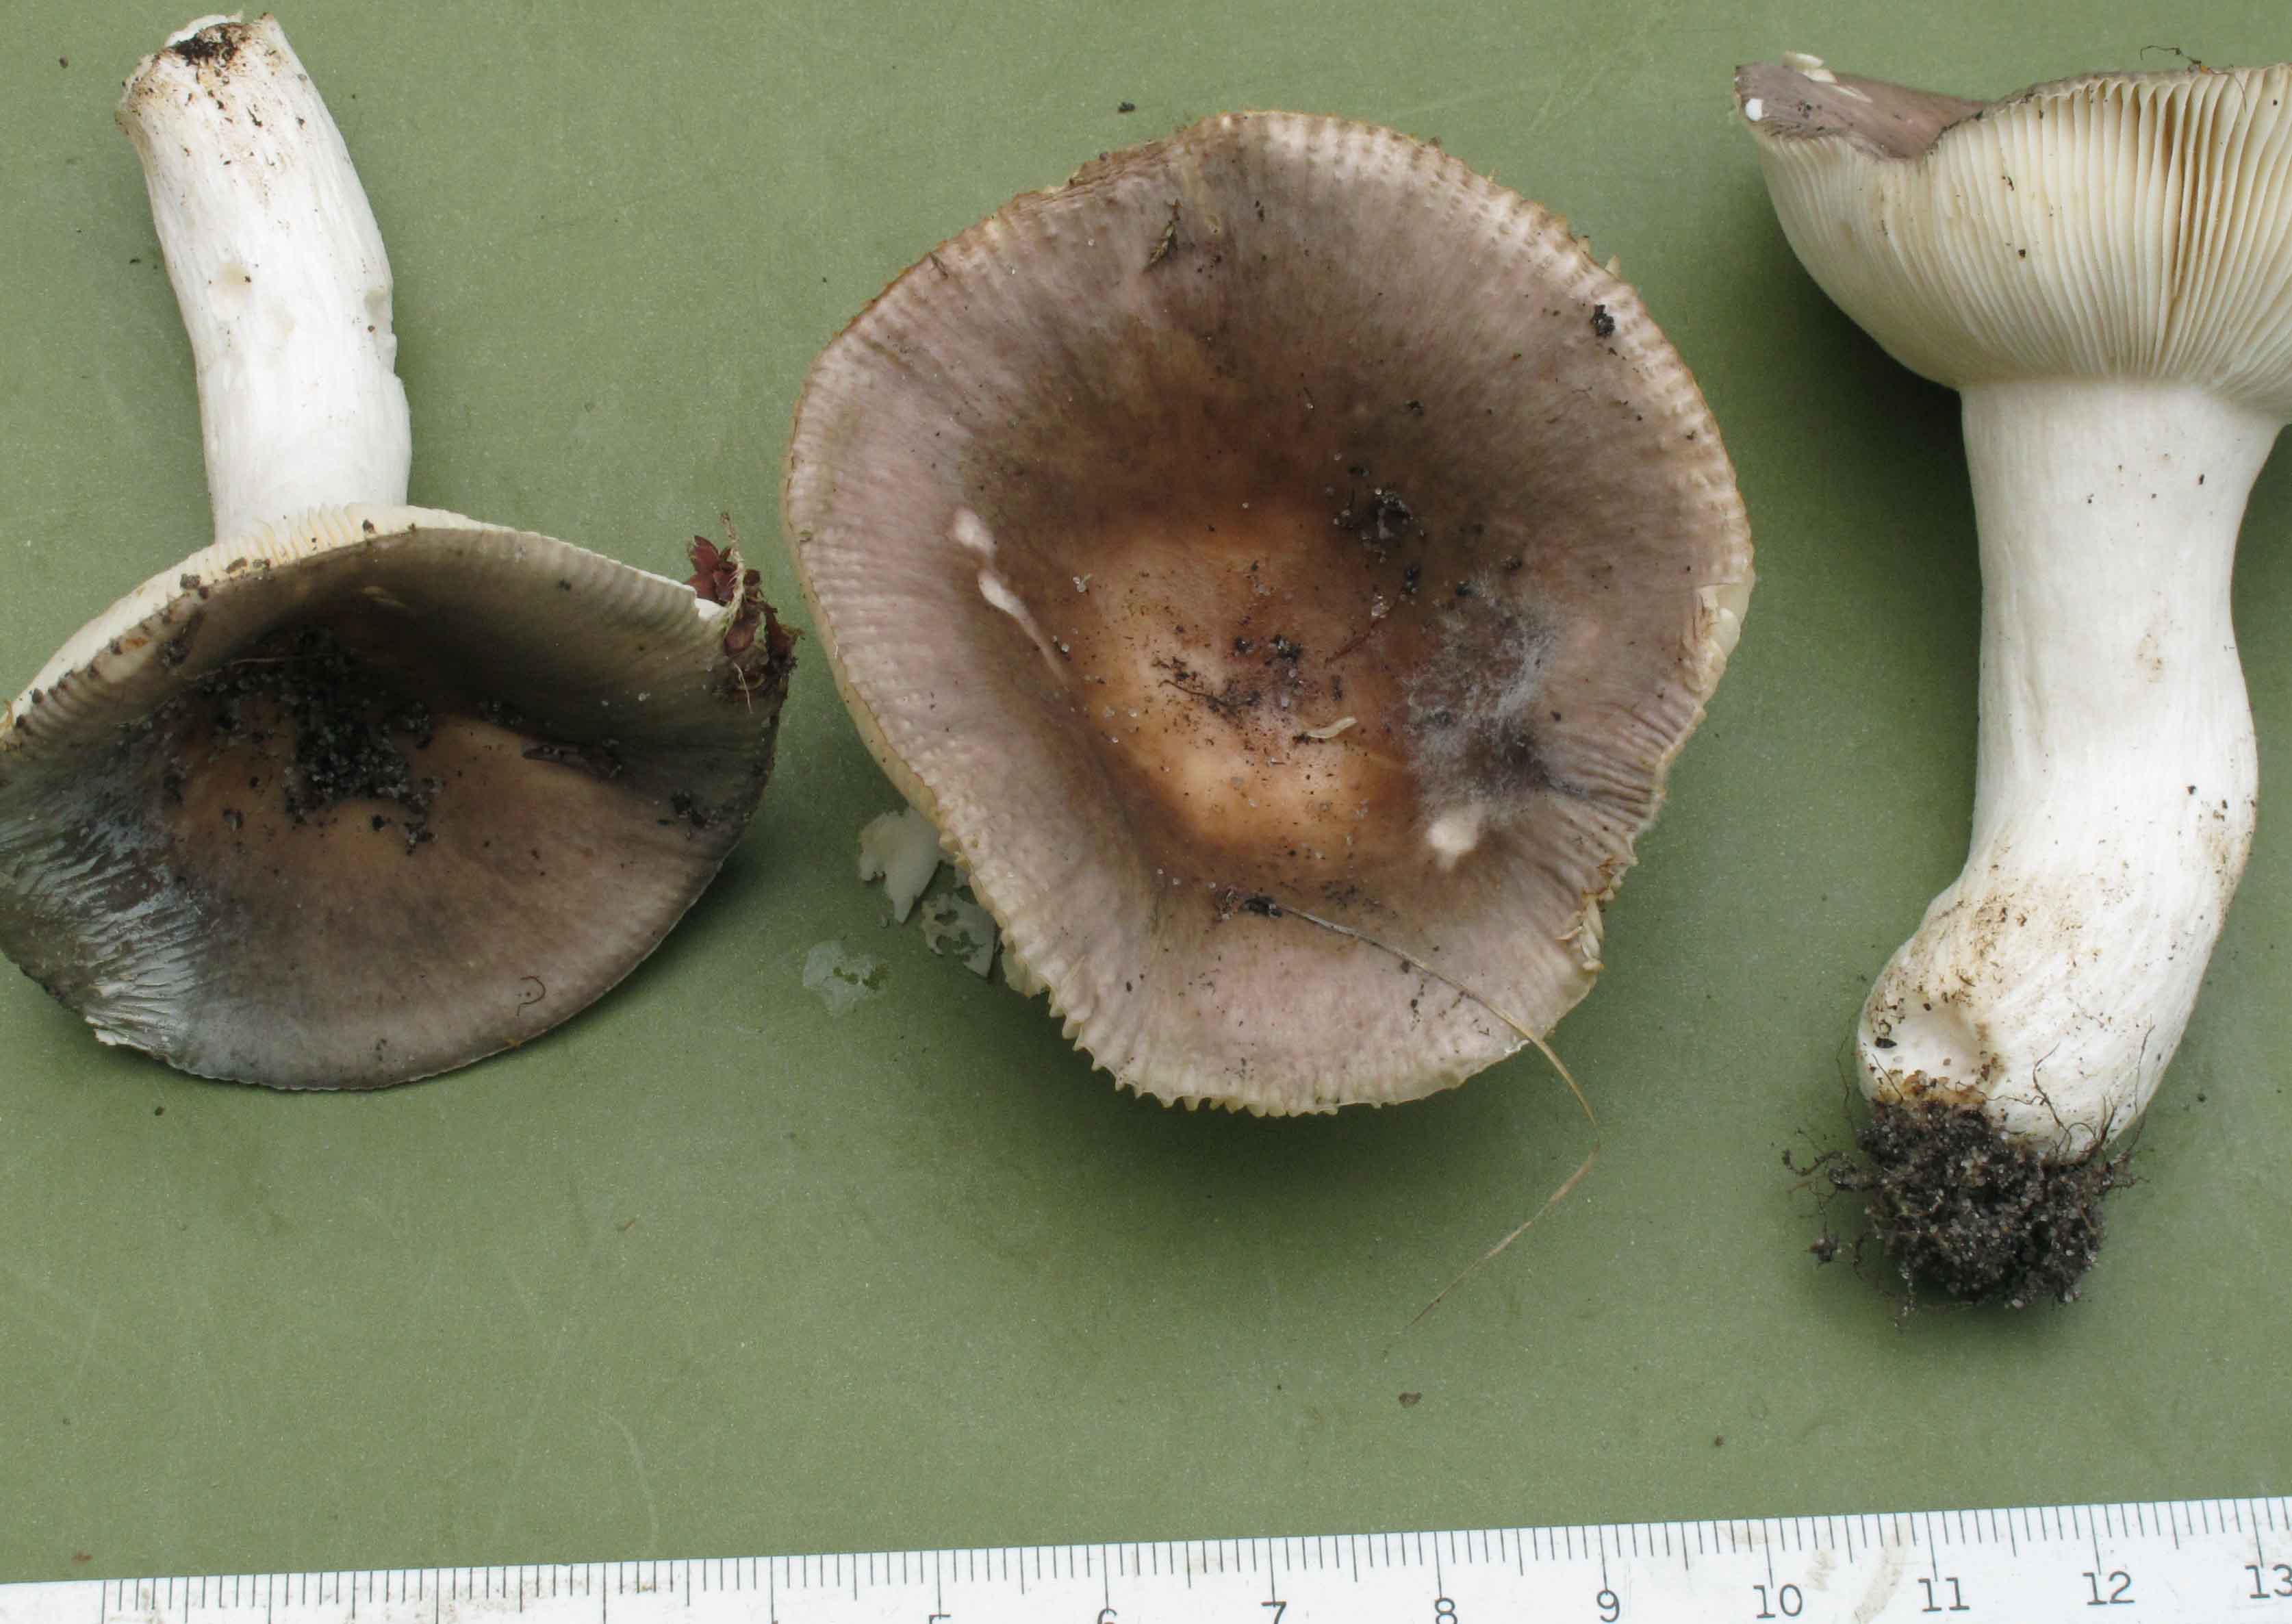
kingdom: Fungi
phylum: Basidiomycota
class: Agaricomycetes
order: Russulales
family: Russulaceae
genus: Russula
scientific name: Russula grisea
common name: grålig skørhat
